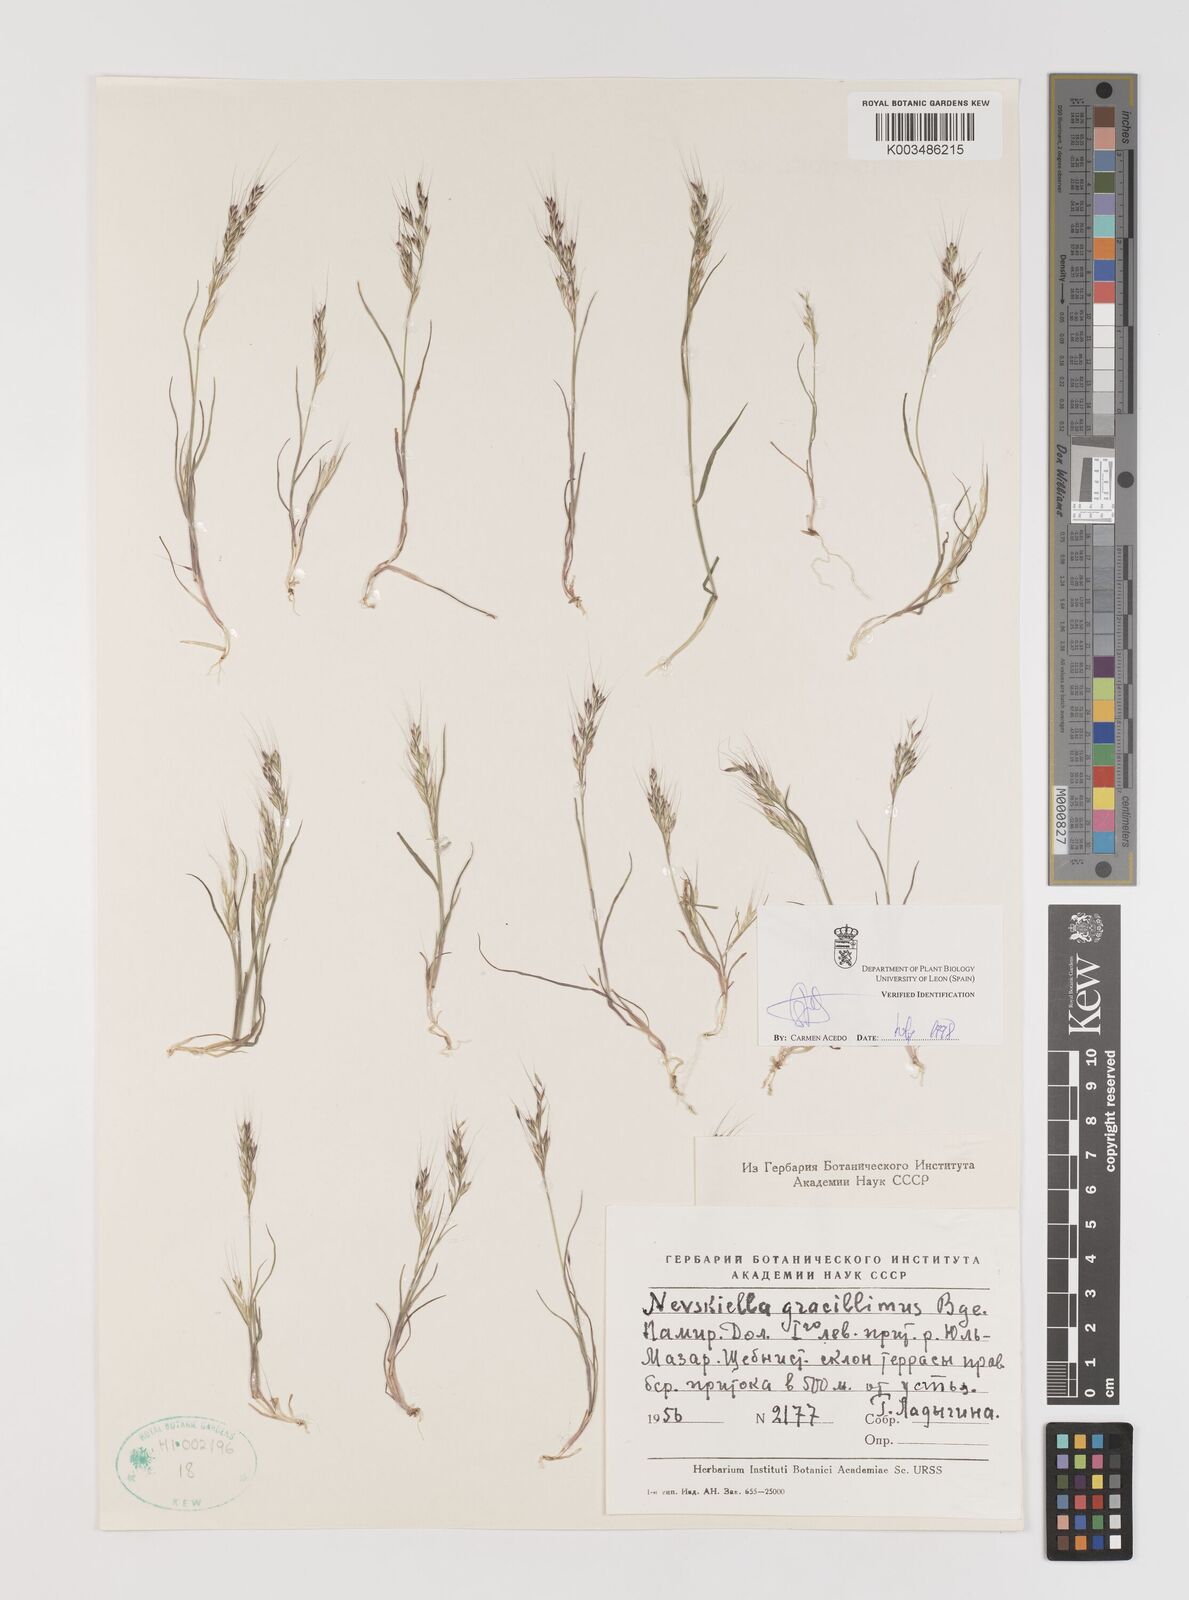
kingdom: Plantae
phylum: Tracheophyta
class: Liliopsida
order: Poales
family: Poaceae
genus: Bromus
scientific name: Bromus gracillimus
